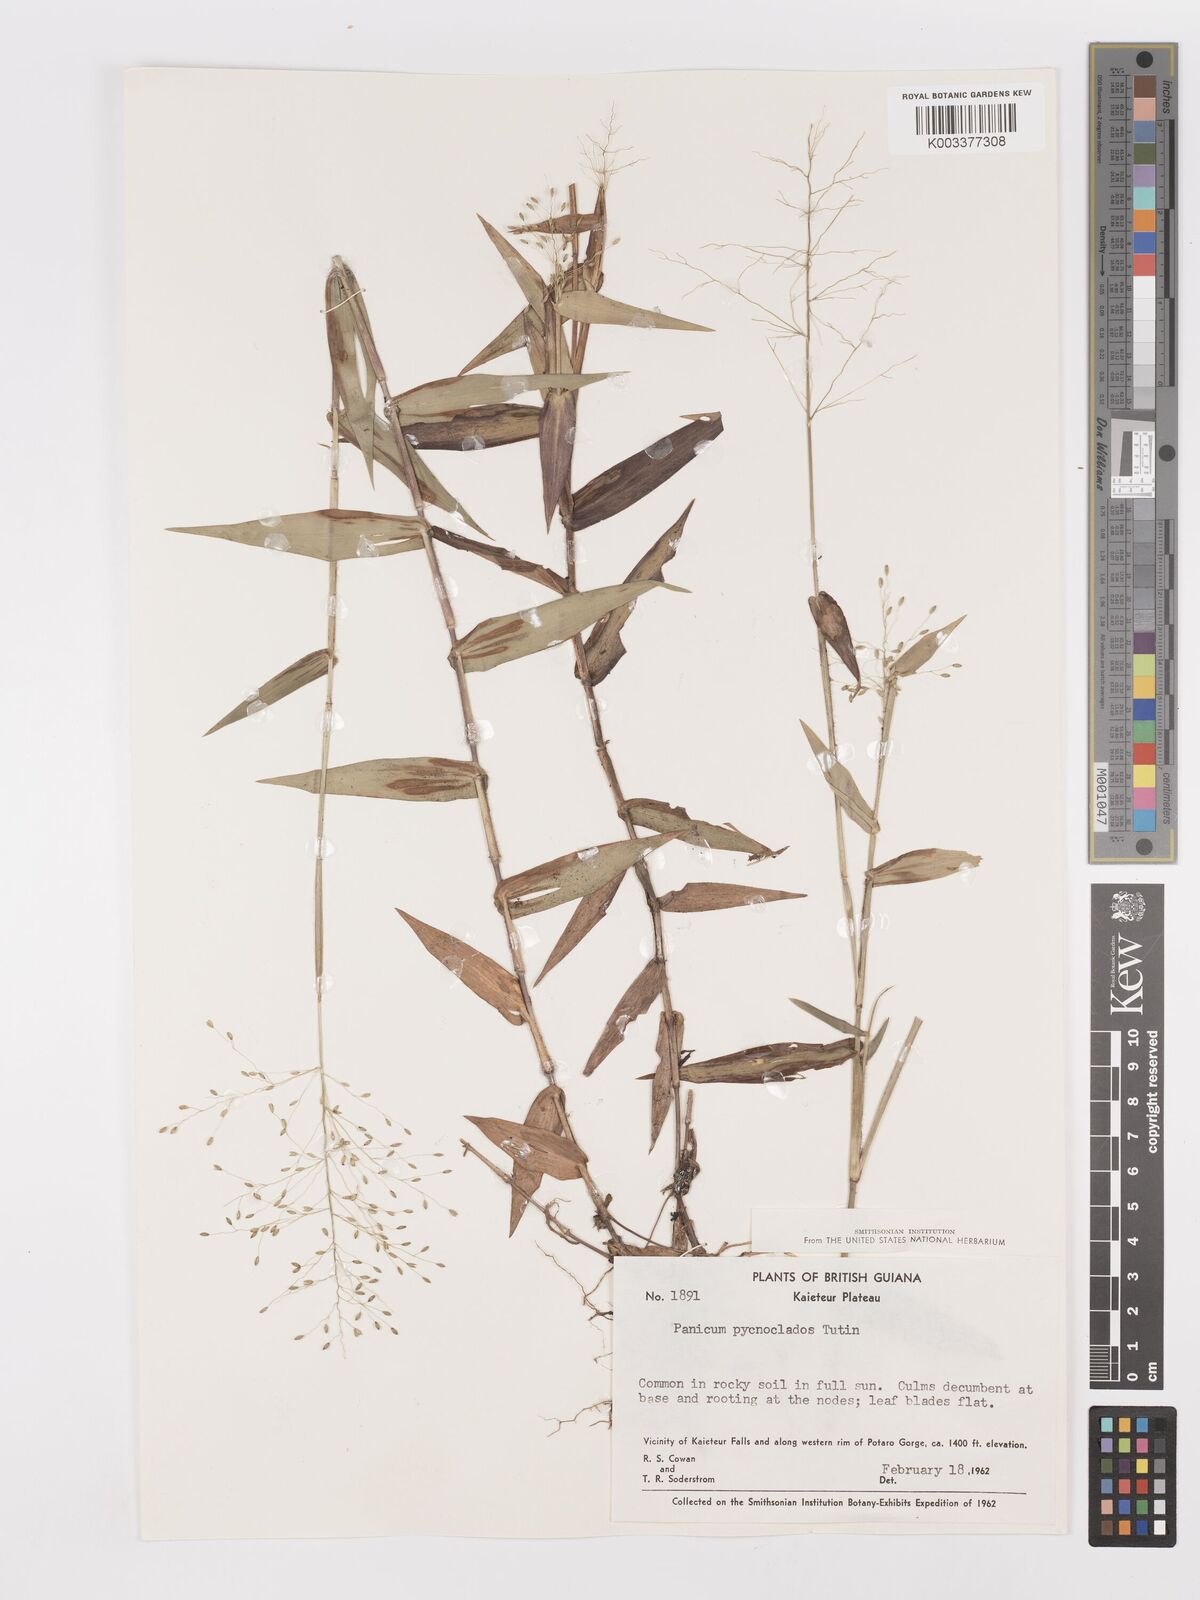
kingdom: Plantae
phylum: Tracheophyta
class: Liliopsida
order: Poales
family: Poaceae
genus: Dichanthelium
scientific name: Dichanthelium pycnoclados
